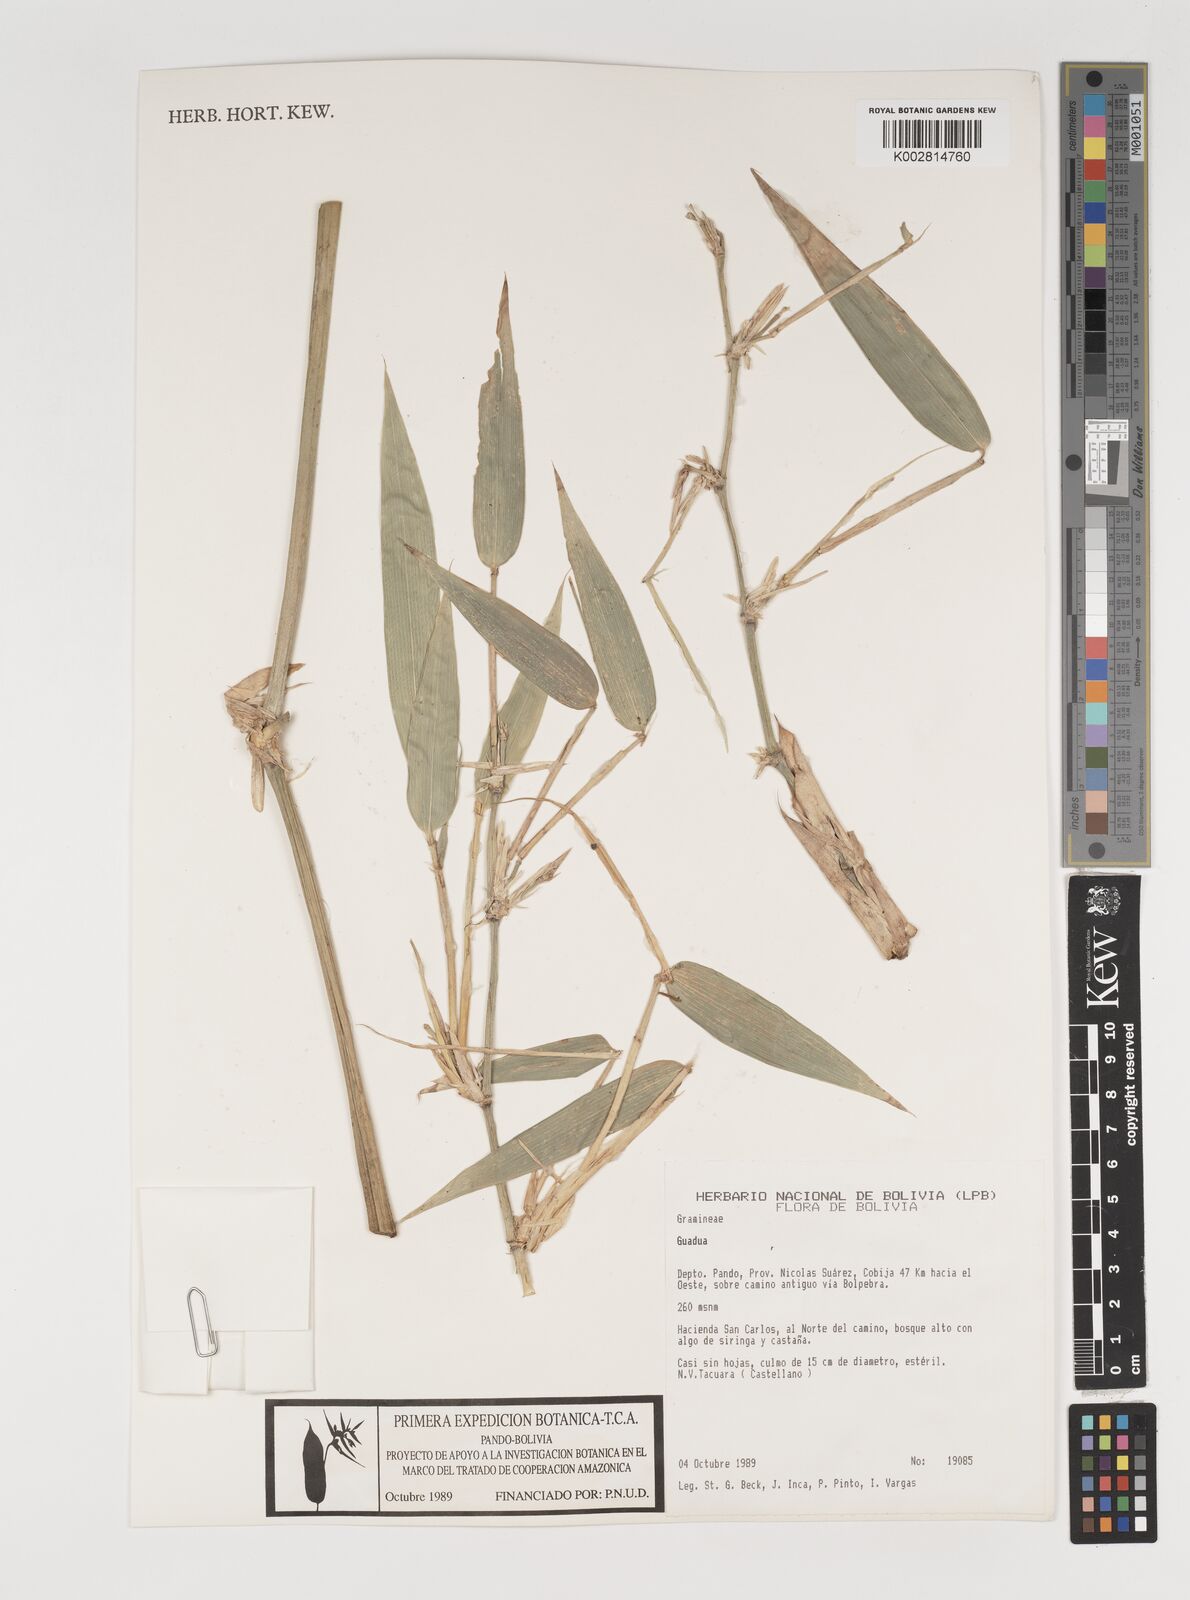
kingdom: Plantae
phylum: Tracheophyta
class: Liliopsida
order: Poales
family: Poaceae
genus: Guadua
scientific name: Guadua
